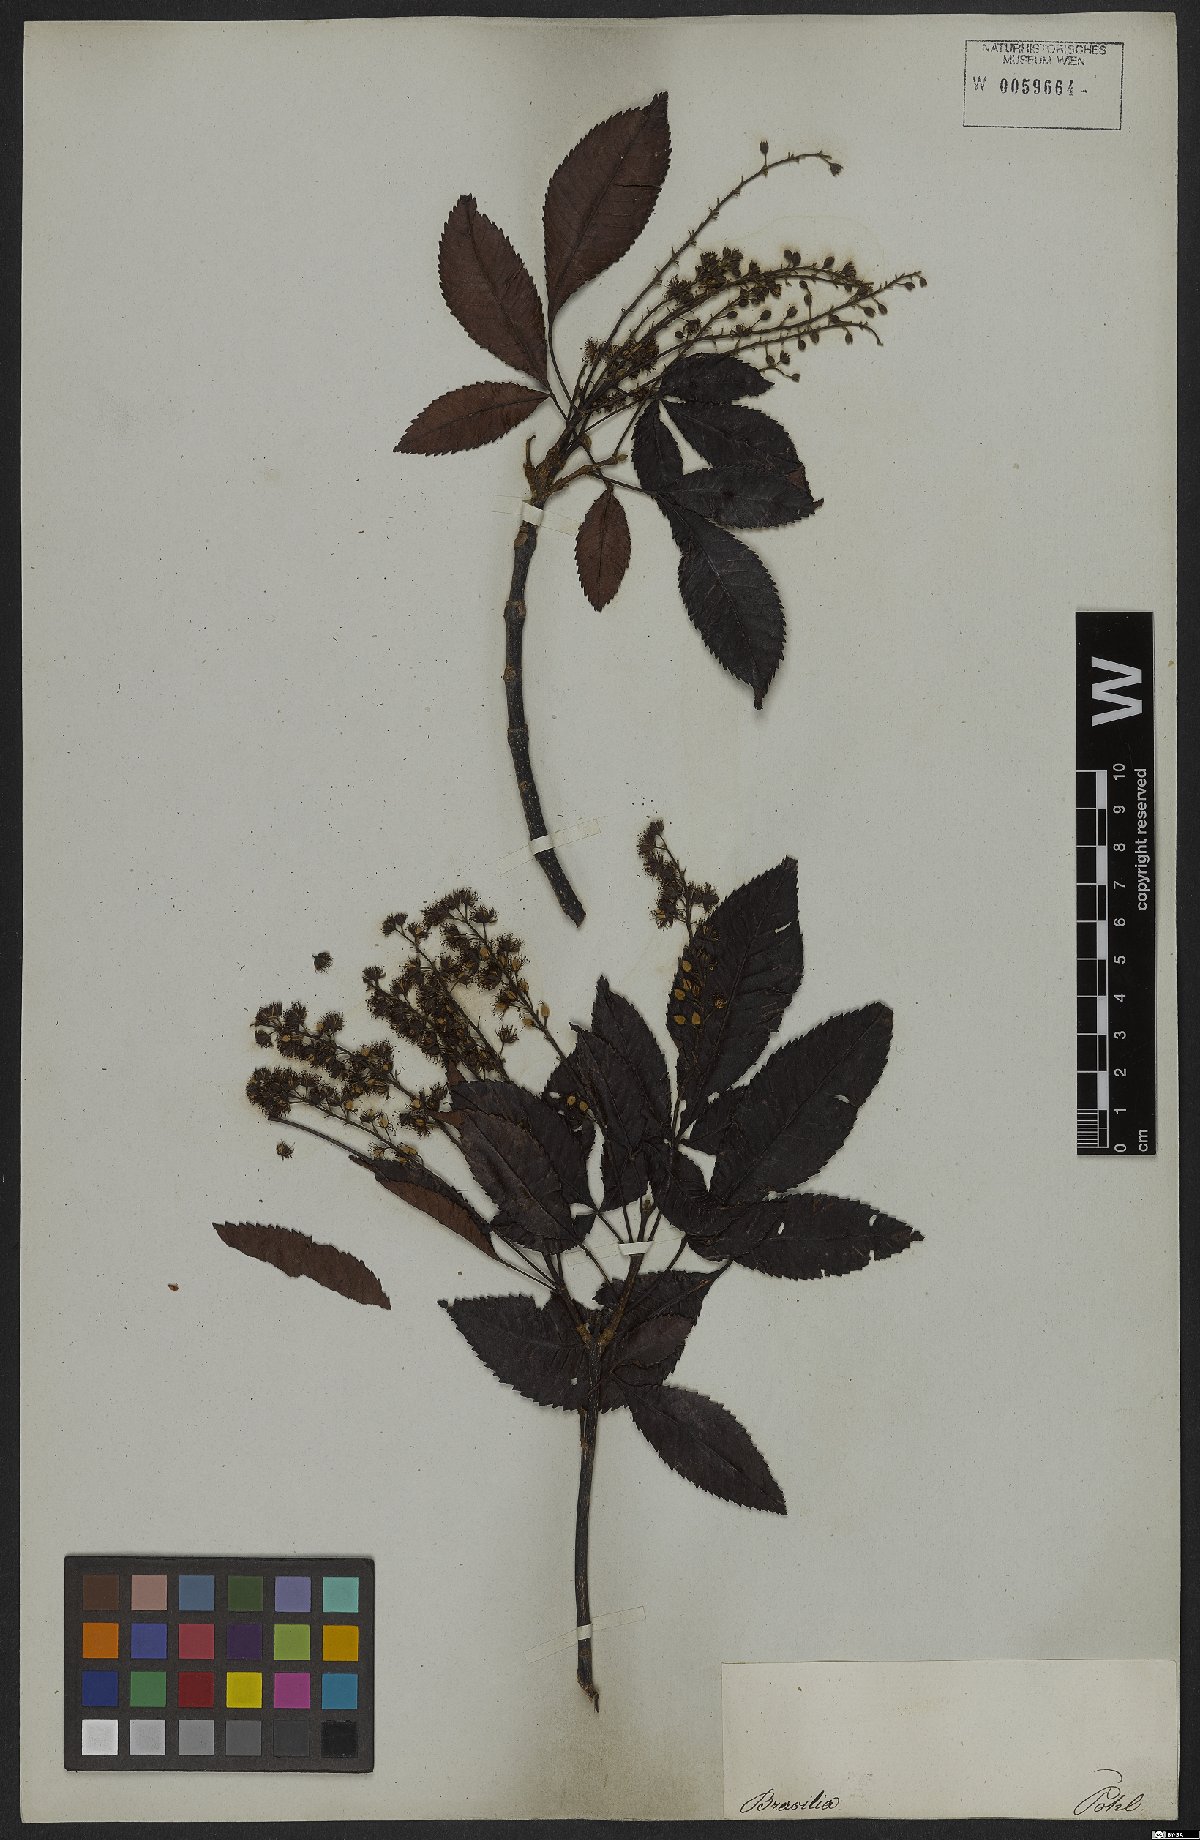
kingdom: Plantae
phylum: Tracheophyta
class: Magnoliopsida
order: Oxalidales
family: Cunoniaceae
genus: Lamanonia
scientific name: Lamanonia speciosa
